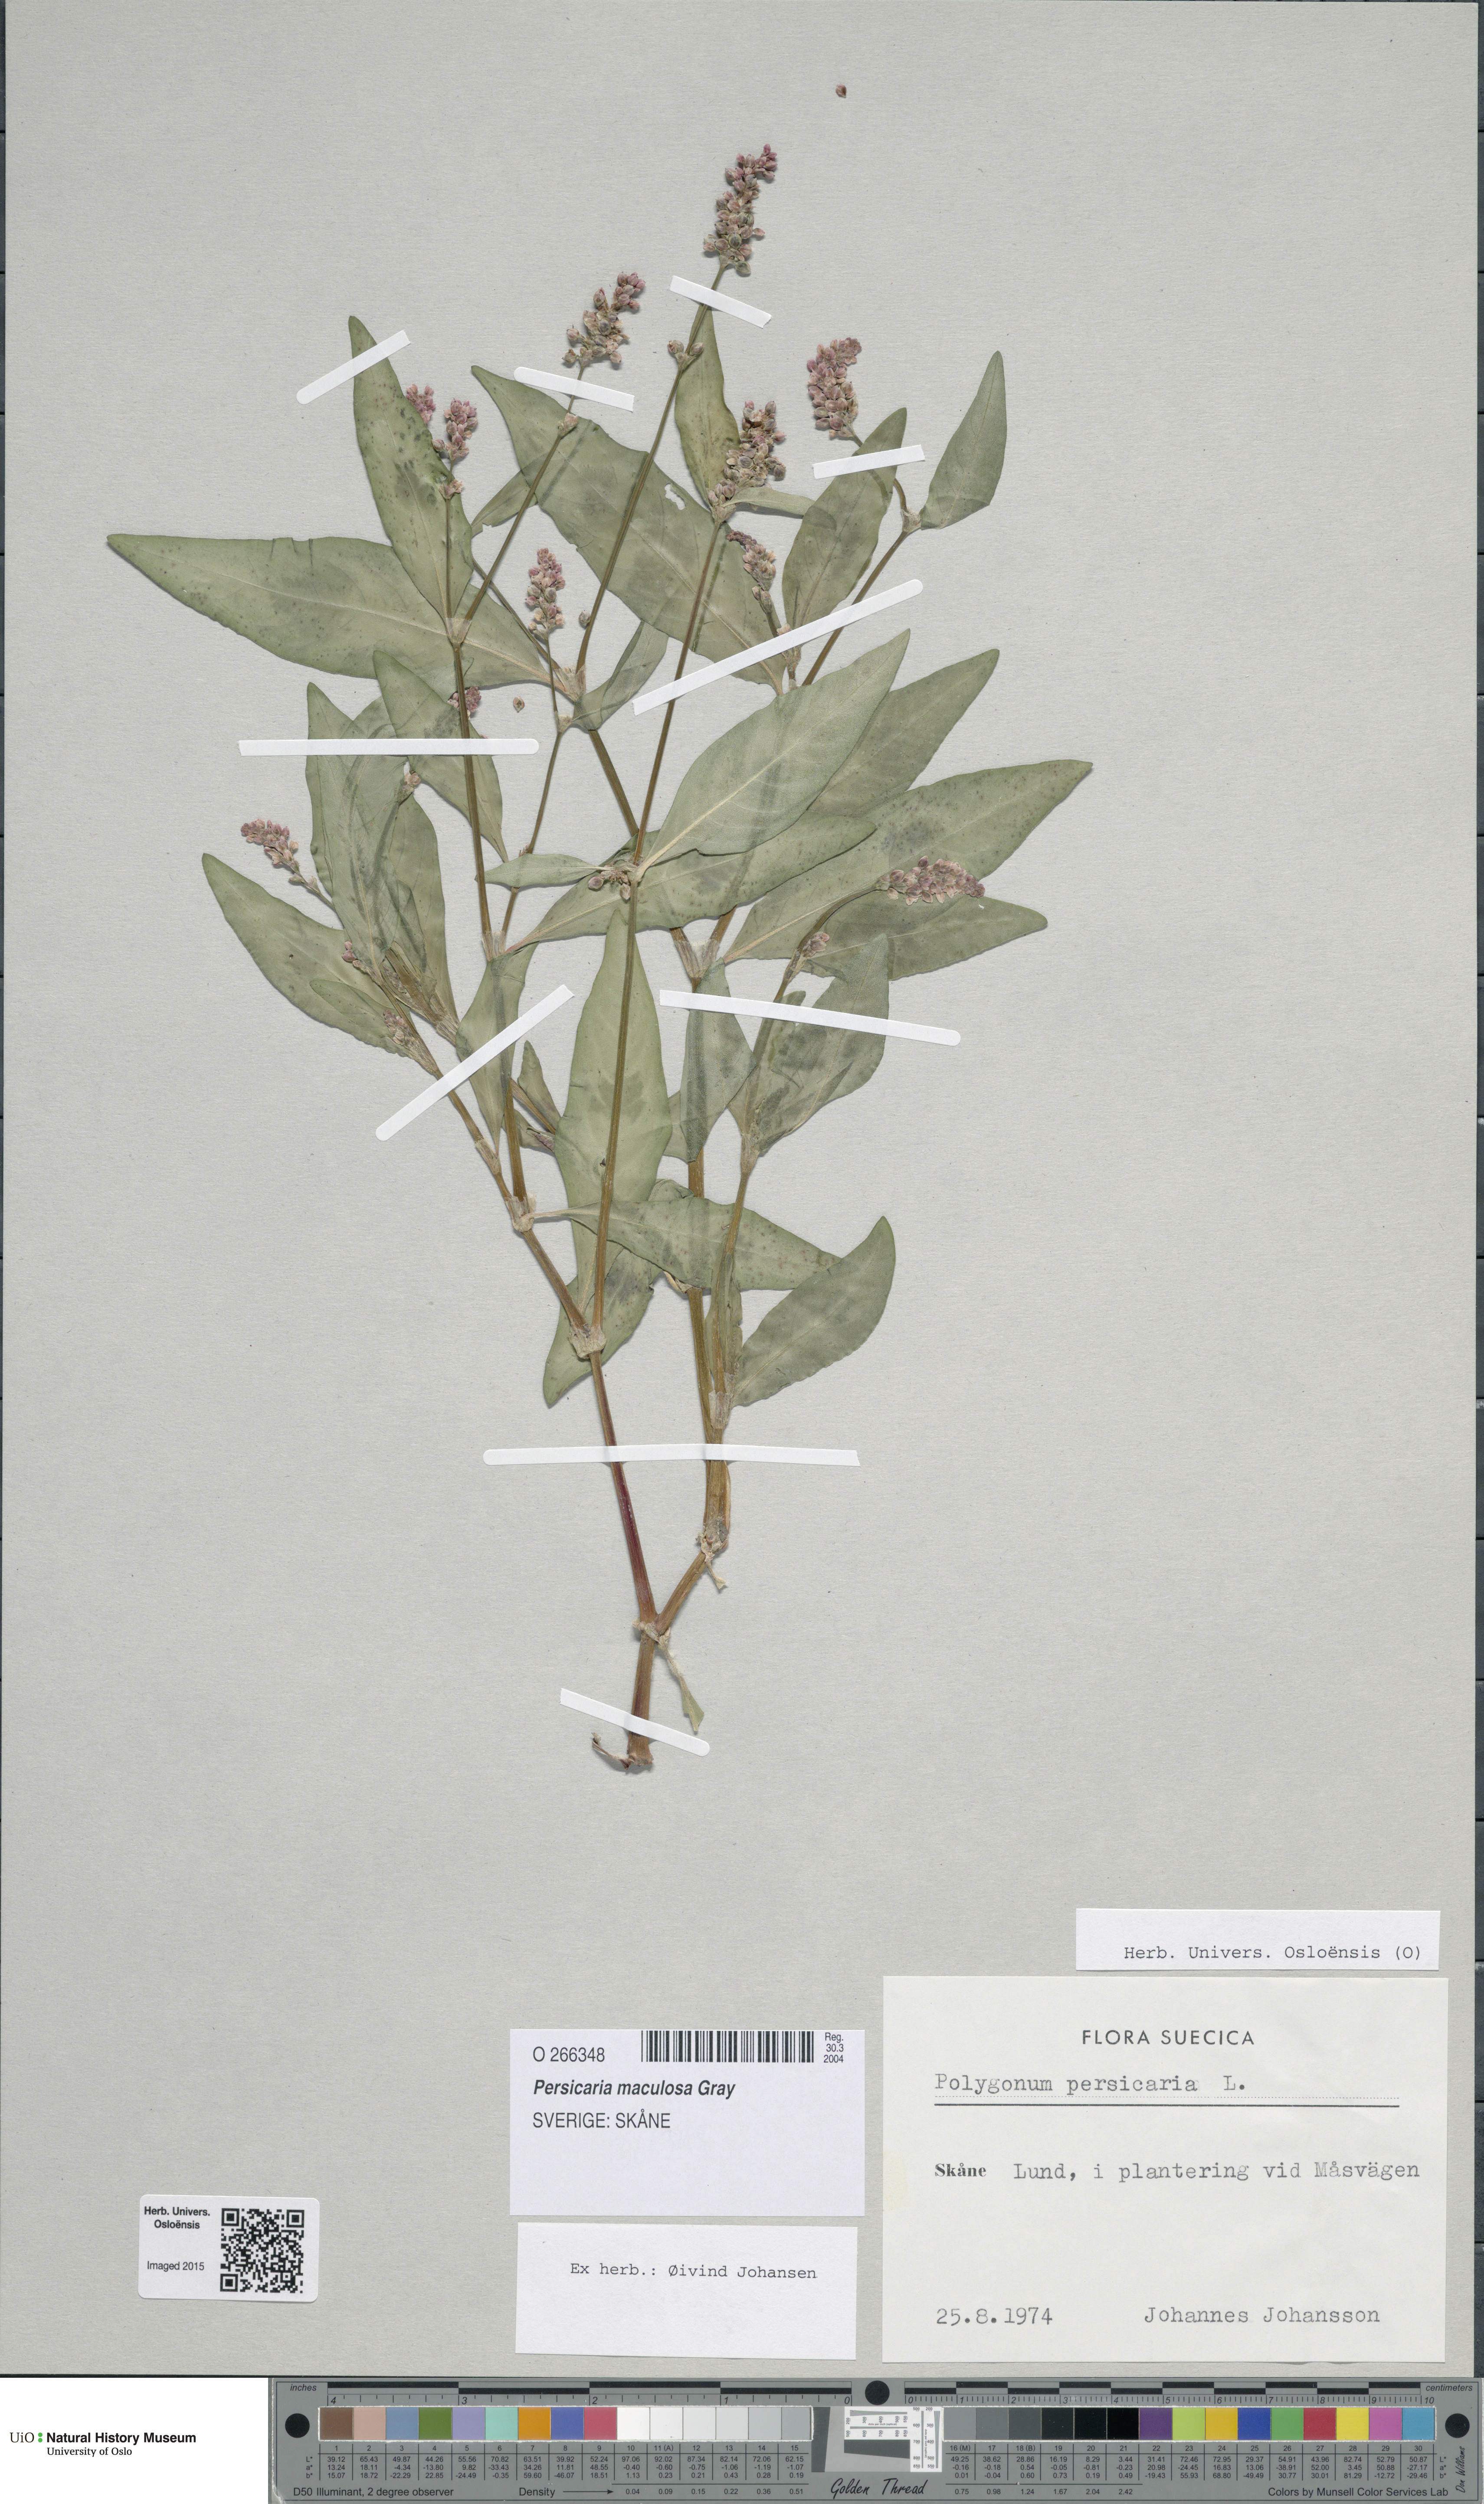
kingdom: Plantae
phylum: Tracheophyta
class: Magnoliopsida
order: Caryophyllales
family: Polygonaceae
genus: Persicaria
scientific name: Persicaria maculosa
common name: Redshank
